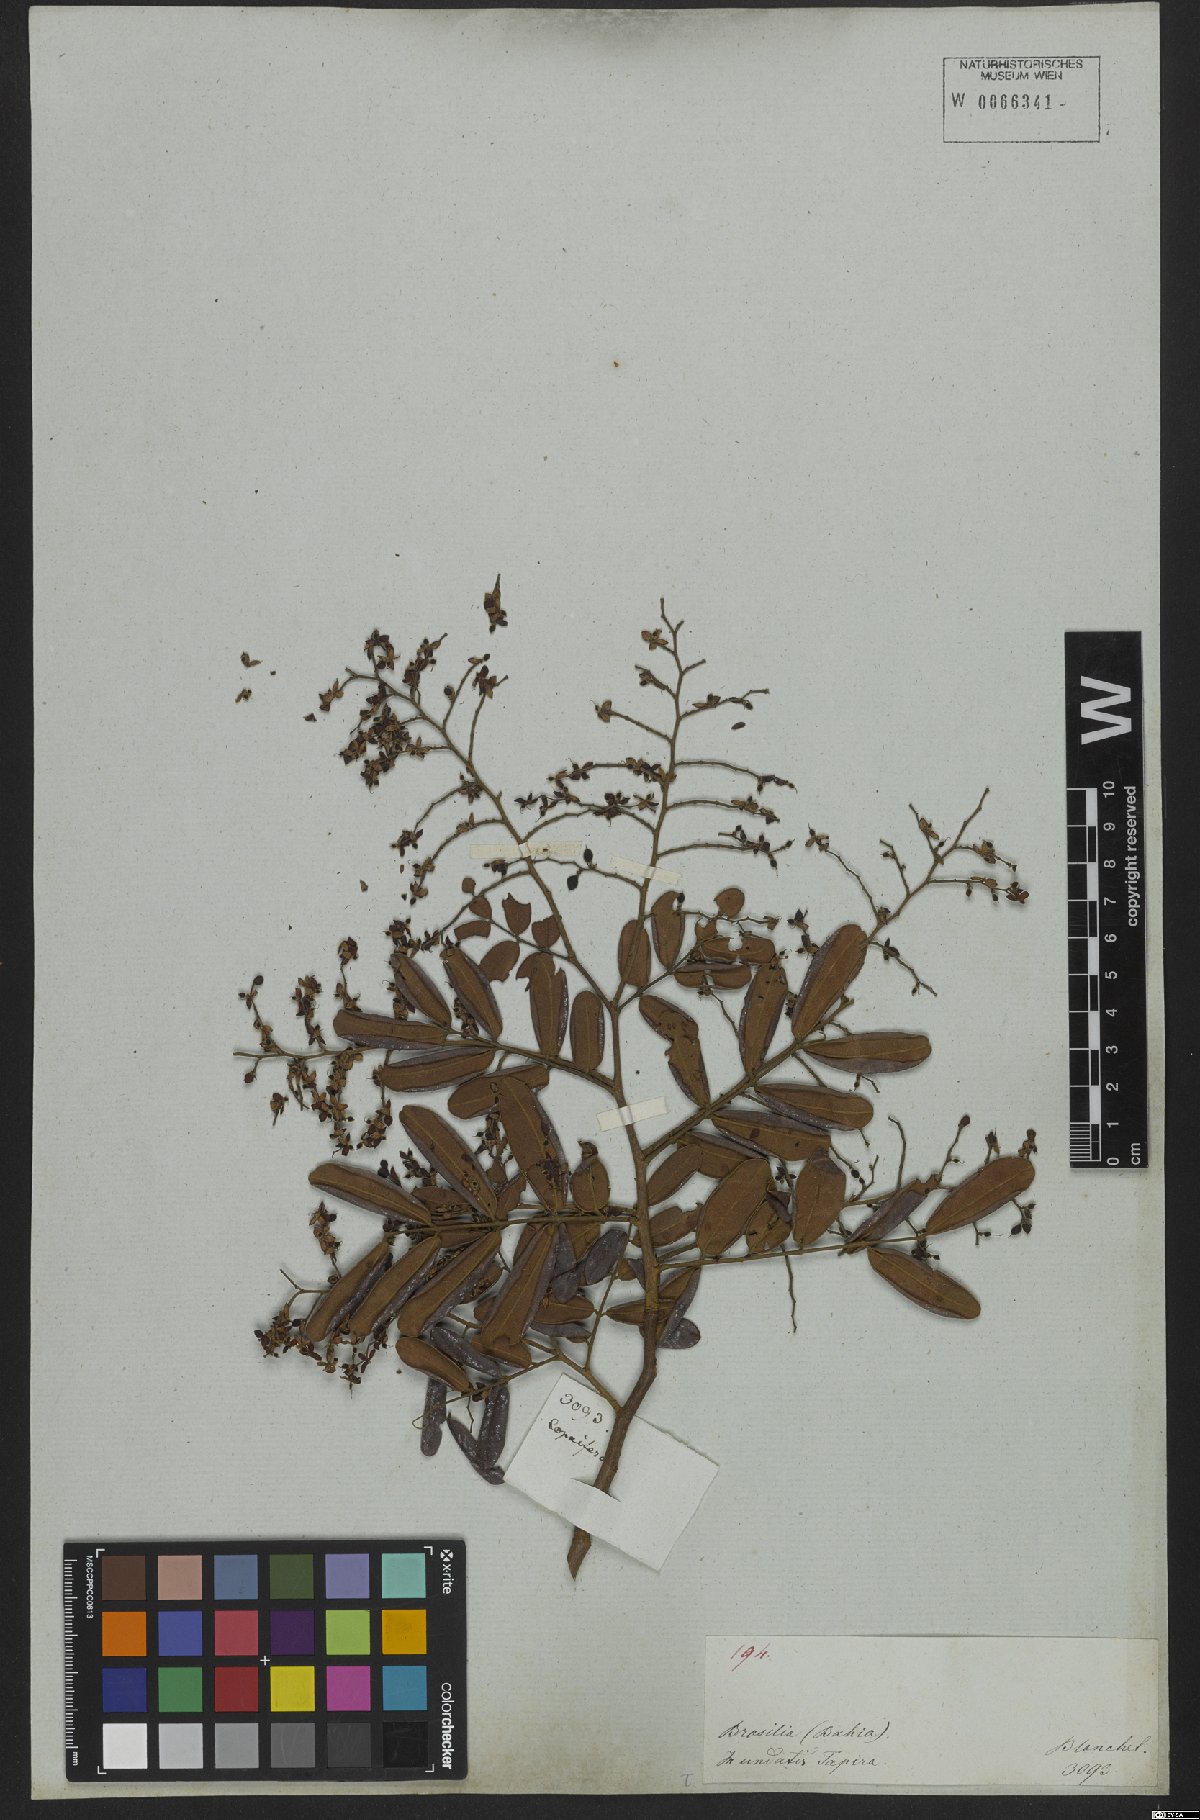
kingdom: Plantae
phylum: Tracheophyta
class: Magnoliopsida
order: Fabales
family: Fabaceae
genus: Copaifera
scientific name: Copaifera coriacea
